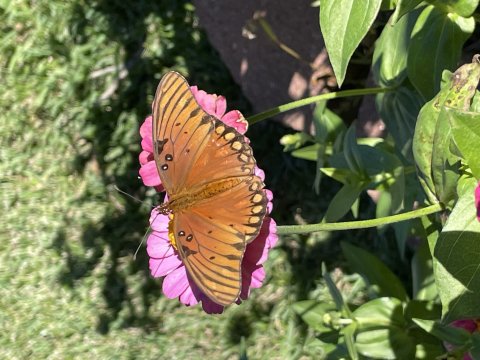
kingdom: Animalia
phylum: Arthropoda
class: Insecta
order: Lepidoptera
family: Nymphalidae
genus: Dione
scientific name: Dione vanillae
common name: Gulf Fritillary
